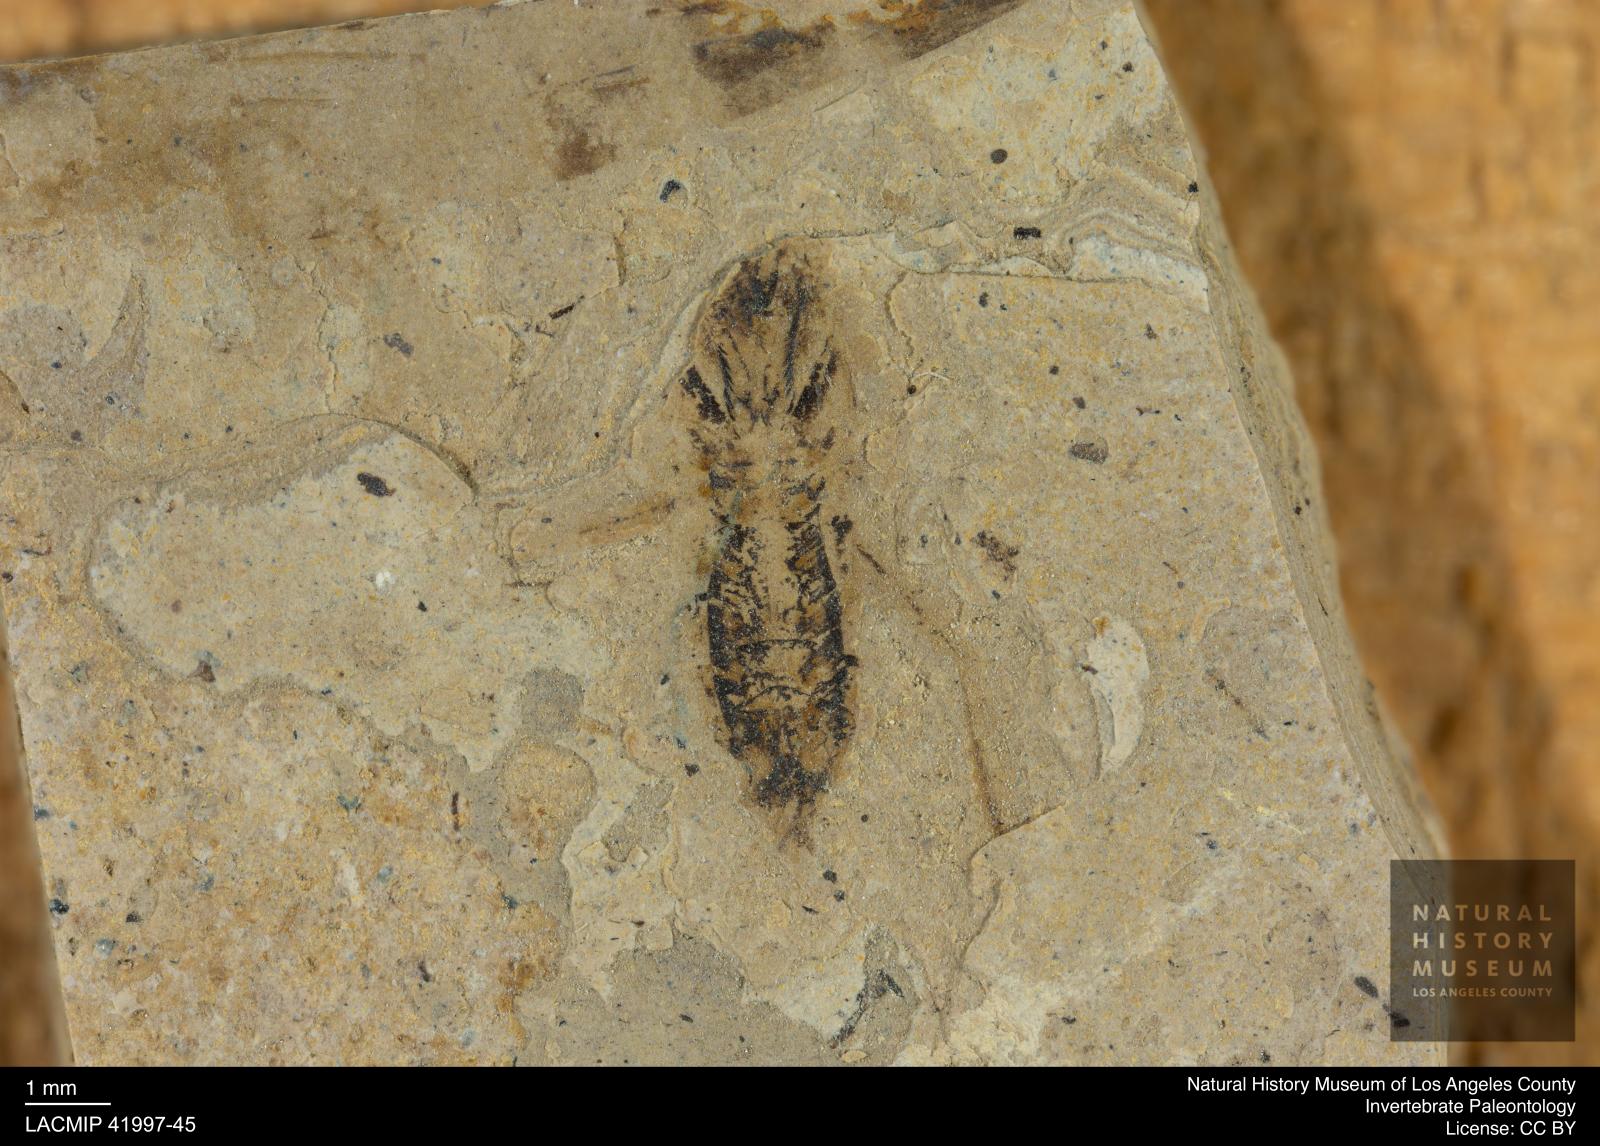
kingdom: Animalia
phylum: Arthropoda
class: Insecta
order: Hemiptera
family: Notonectidae
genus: Anisops
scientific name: Anisops Notonecta deichmuelleri
